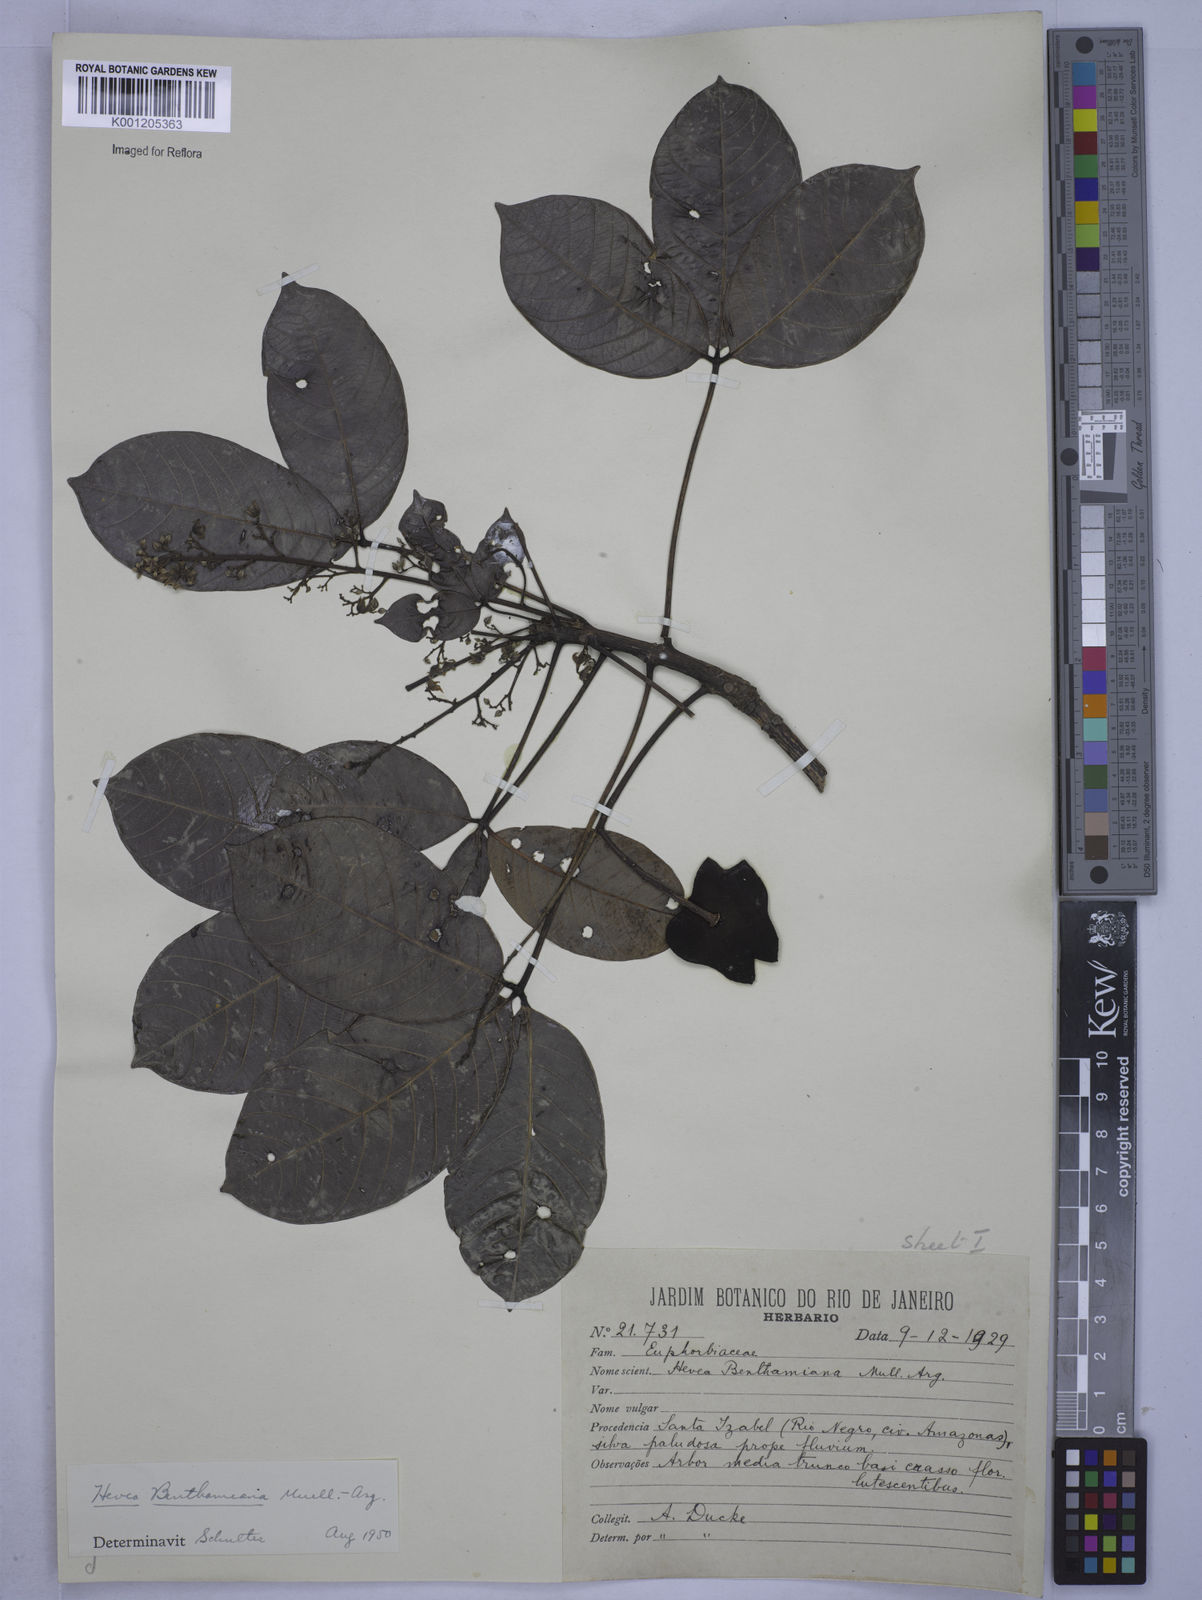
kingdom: Plantae
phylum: Tracheophyta
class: Magnoliopsida
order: Malpighiales
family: Euphorbiaceae
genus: Hevea
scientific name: Hevea
